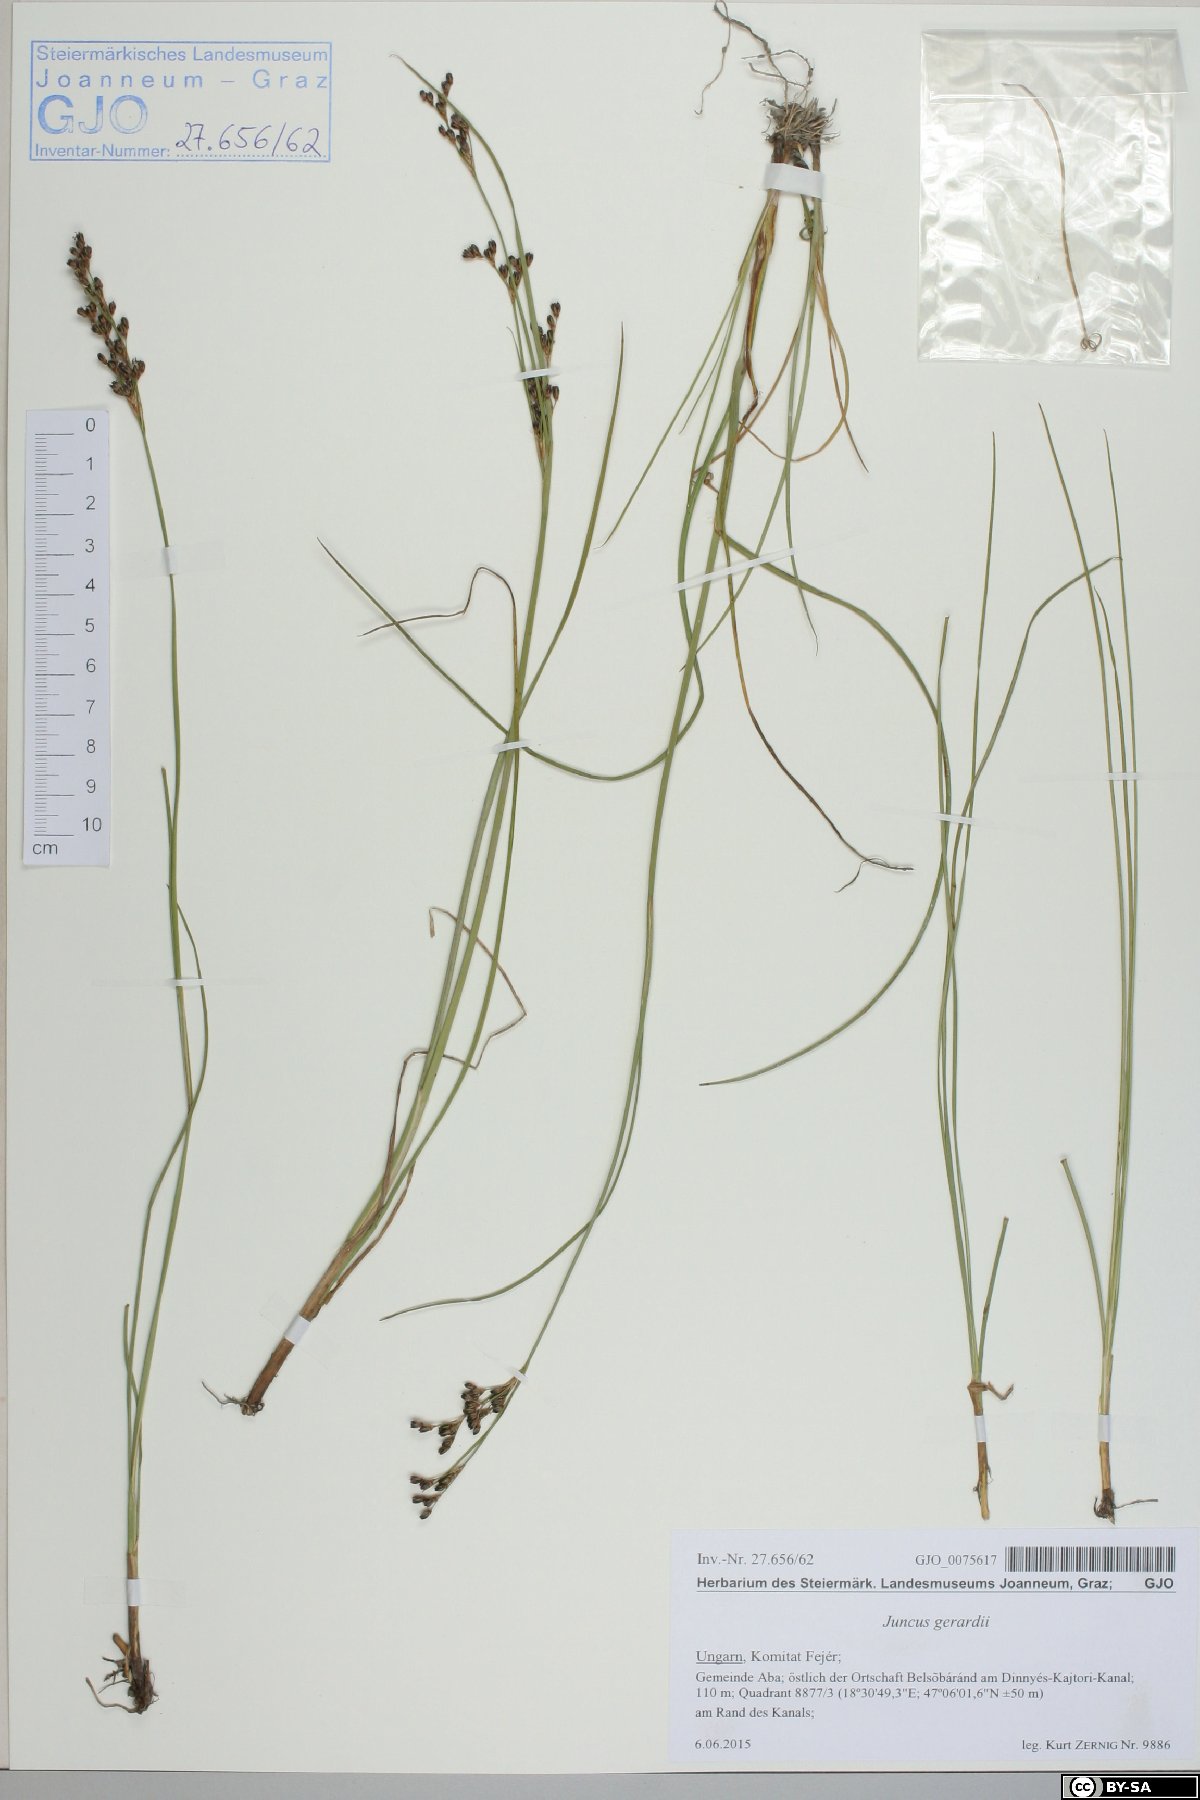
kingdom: Plantae
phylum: Tracheophyta
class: Liliopsida
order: Poales
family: Juncaceae
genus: Juncus
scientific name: Juncus gerardi
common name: Saltmarsh rush
